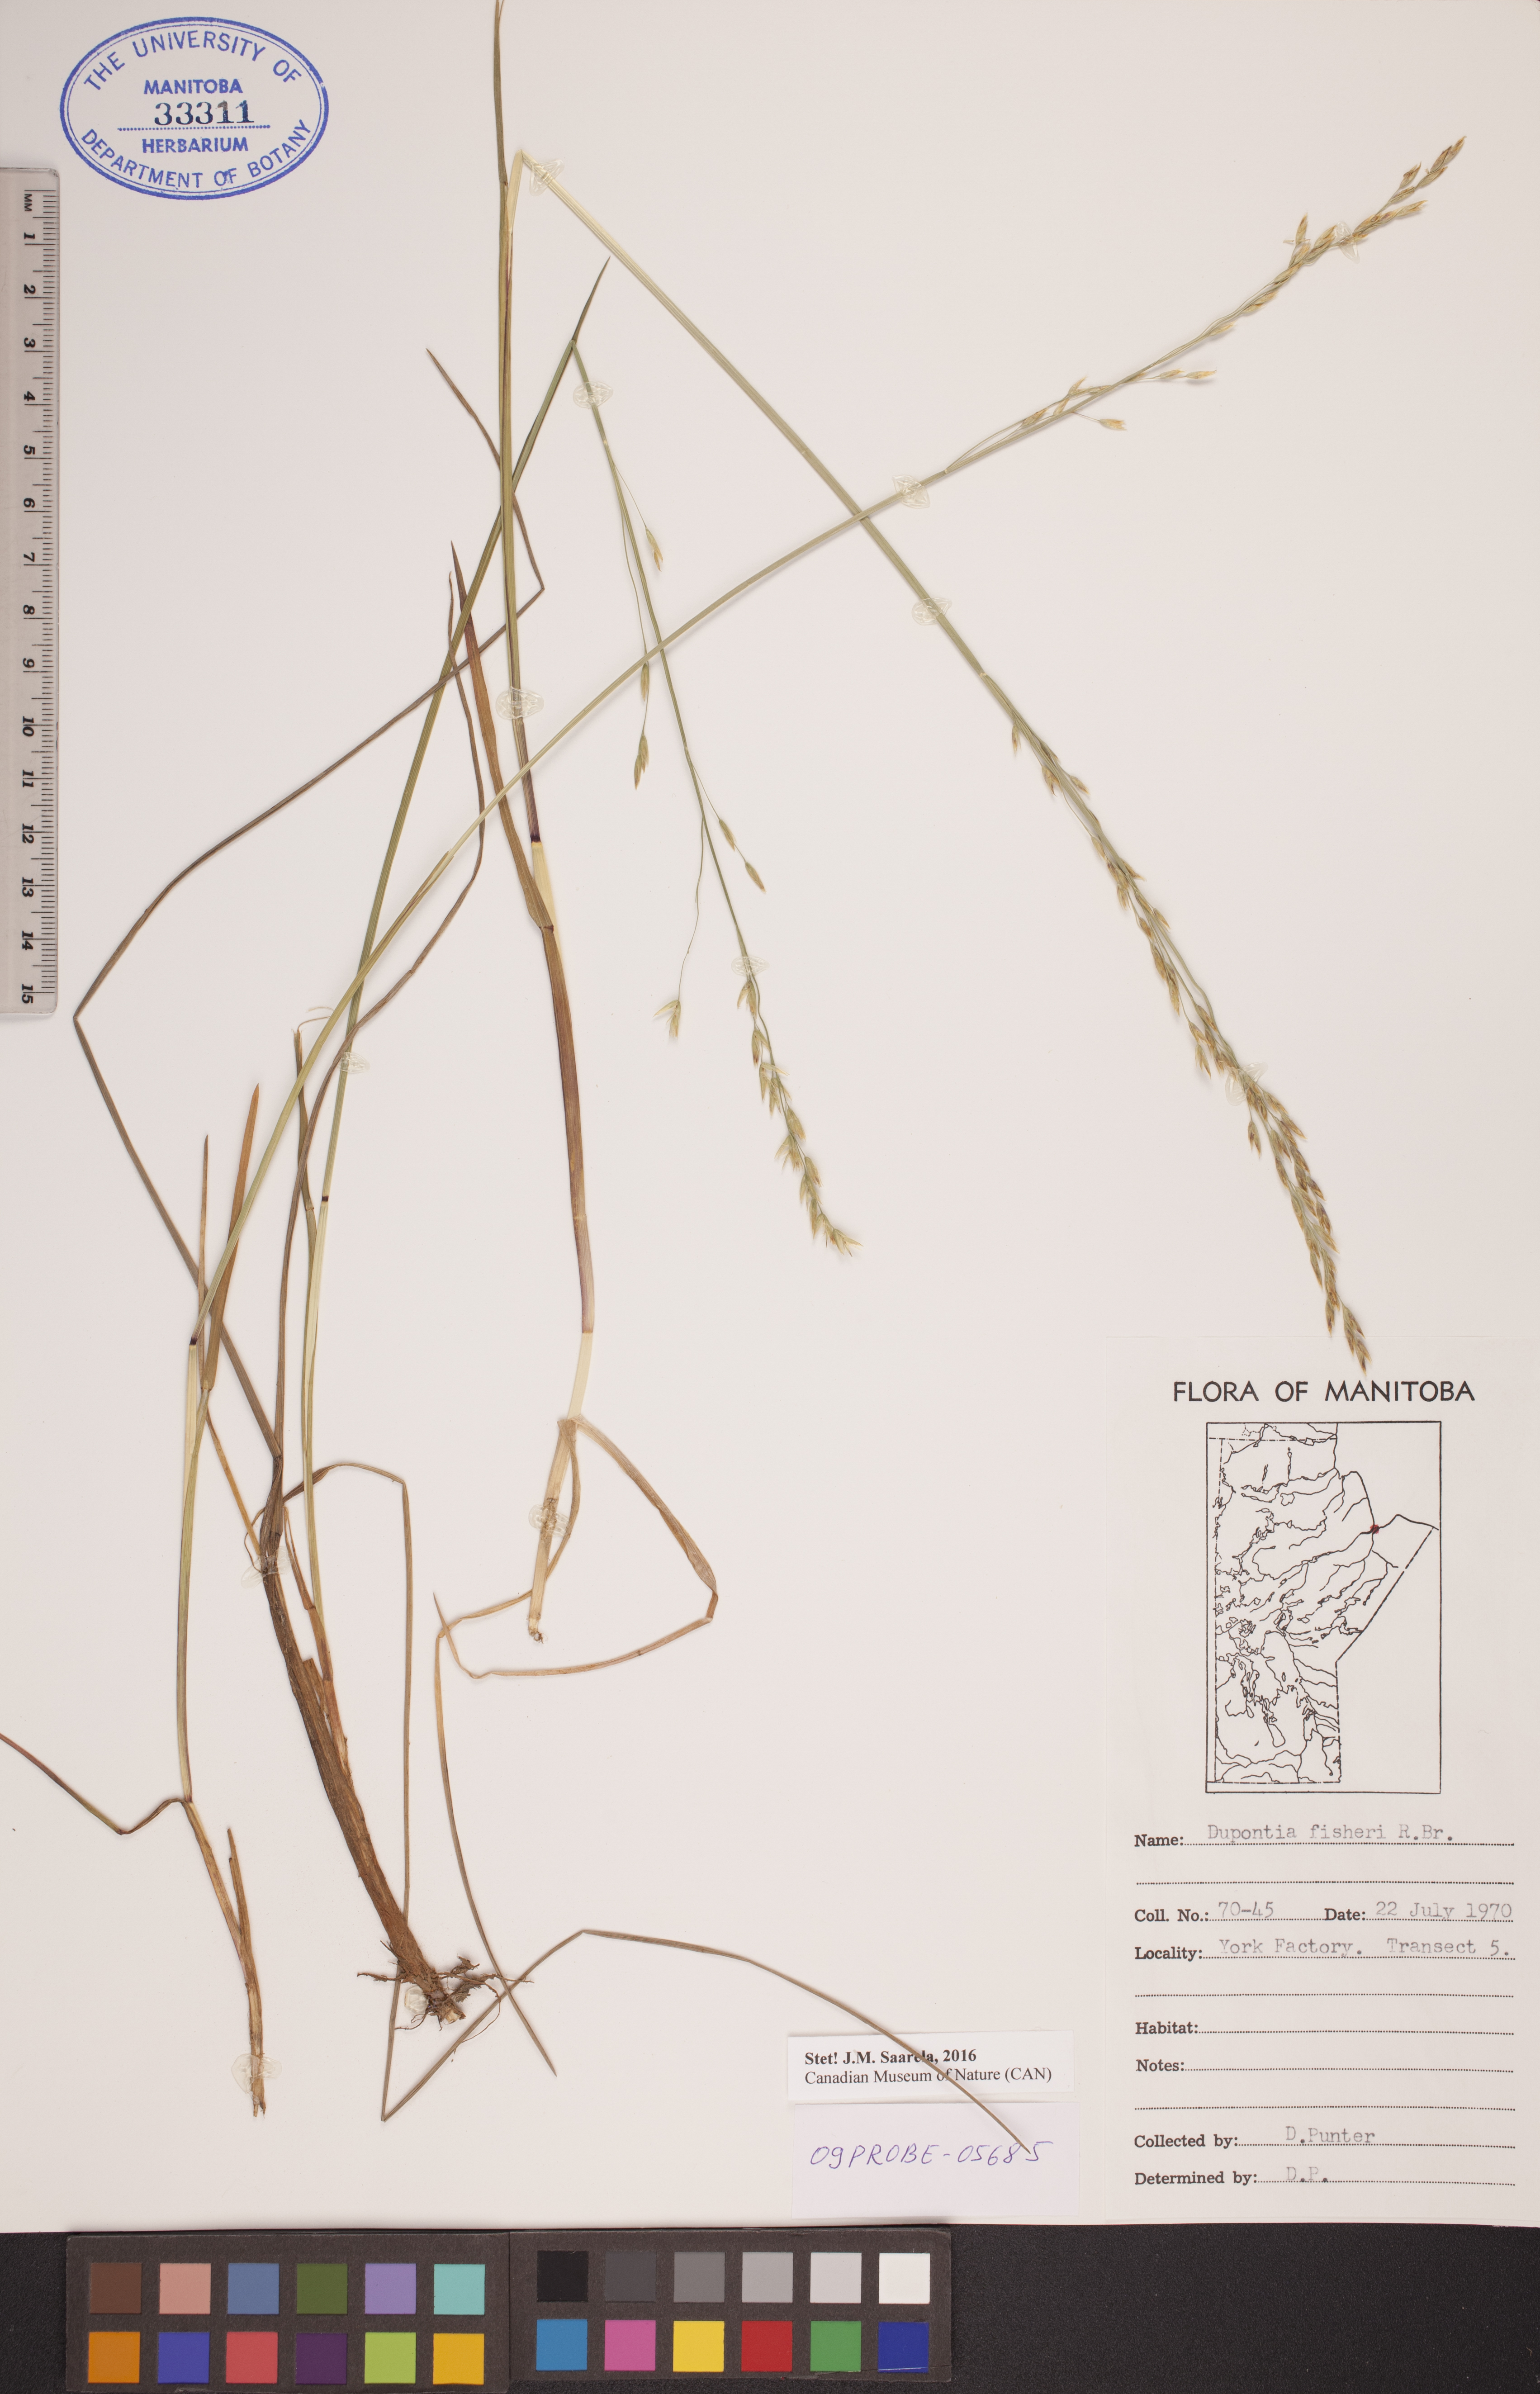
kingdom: Plantae
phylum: Tracheophyta
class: Liliopsida
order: Poales
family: Poaceae
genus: Dupontia
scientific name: Dupontia fisheri
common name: Tundra grass
